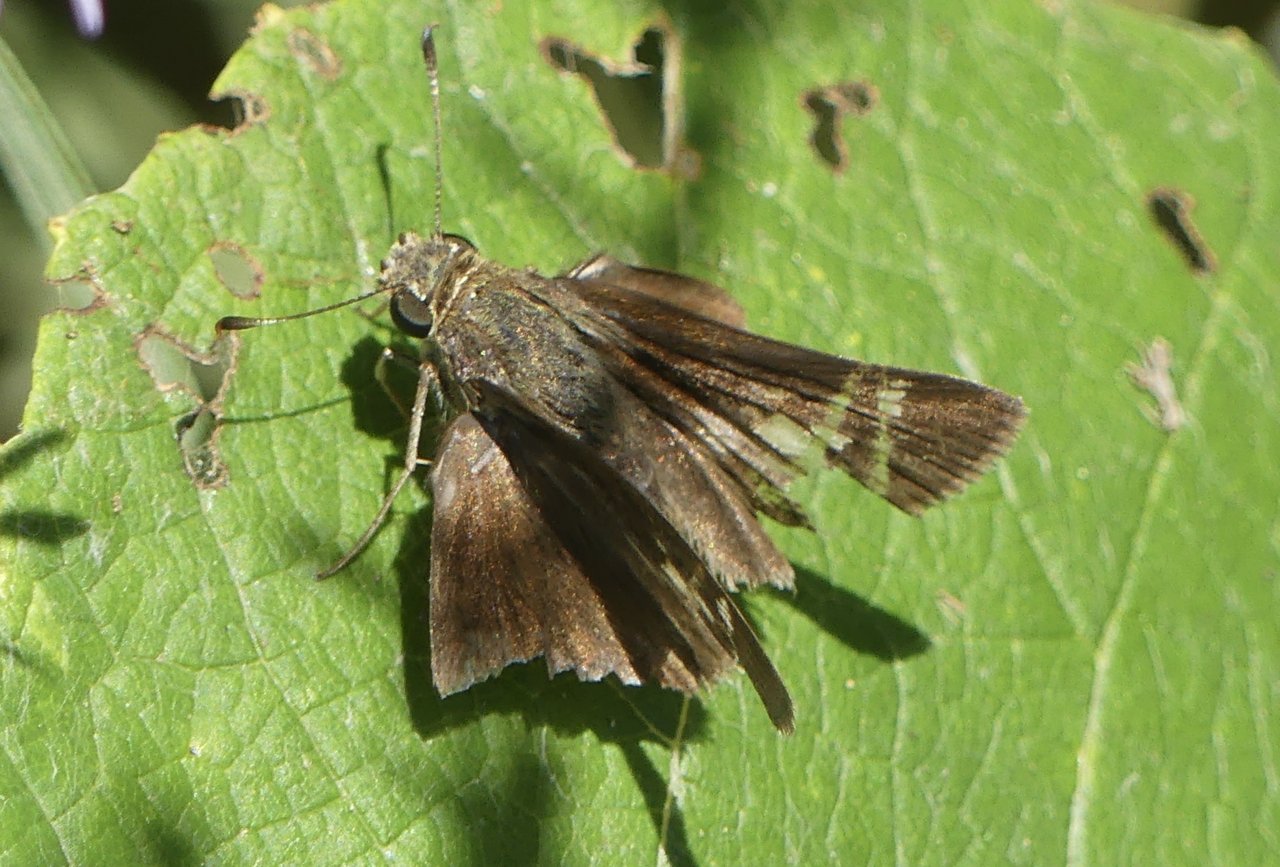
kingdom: Animalia
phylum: Arthropoda
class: Insecta
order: Lepidoptera
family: Hesperiidae
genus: Vernia
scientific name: Vernia verna
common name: Little Glassywing
